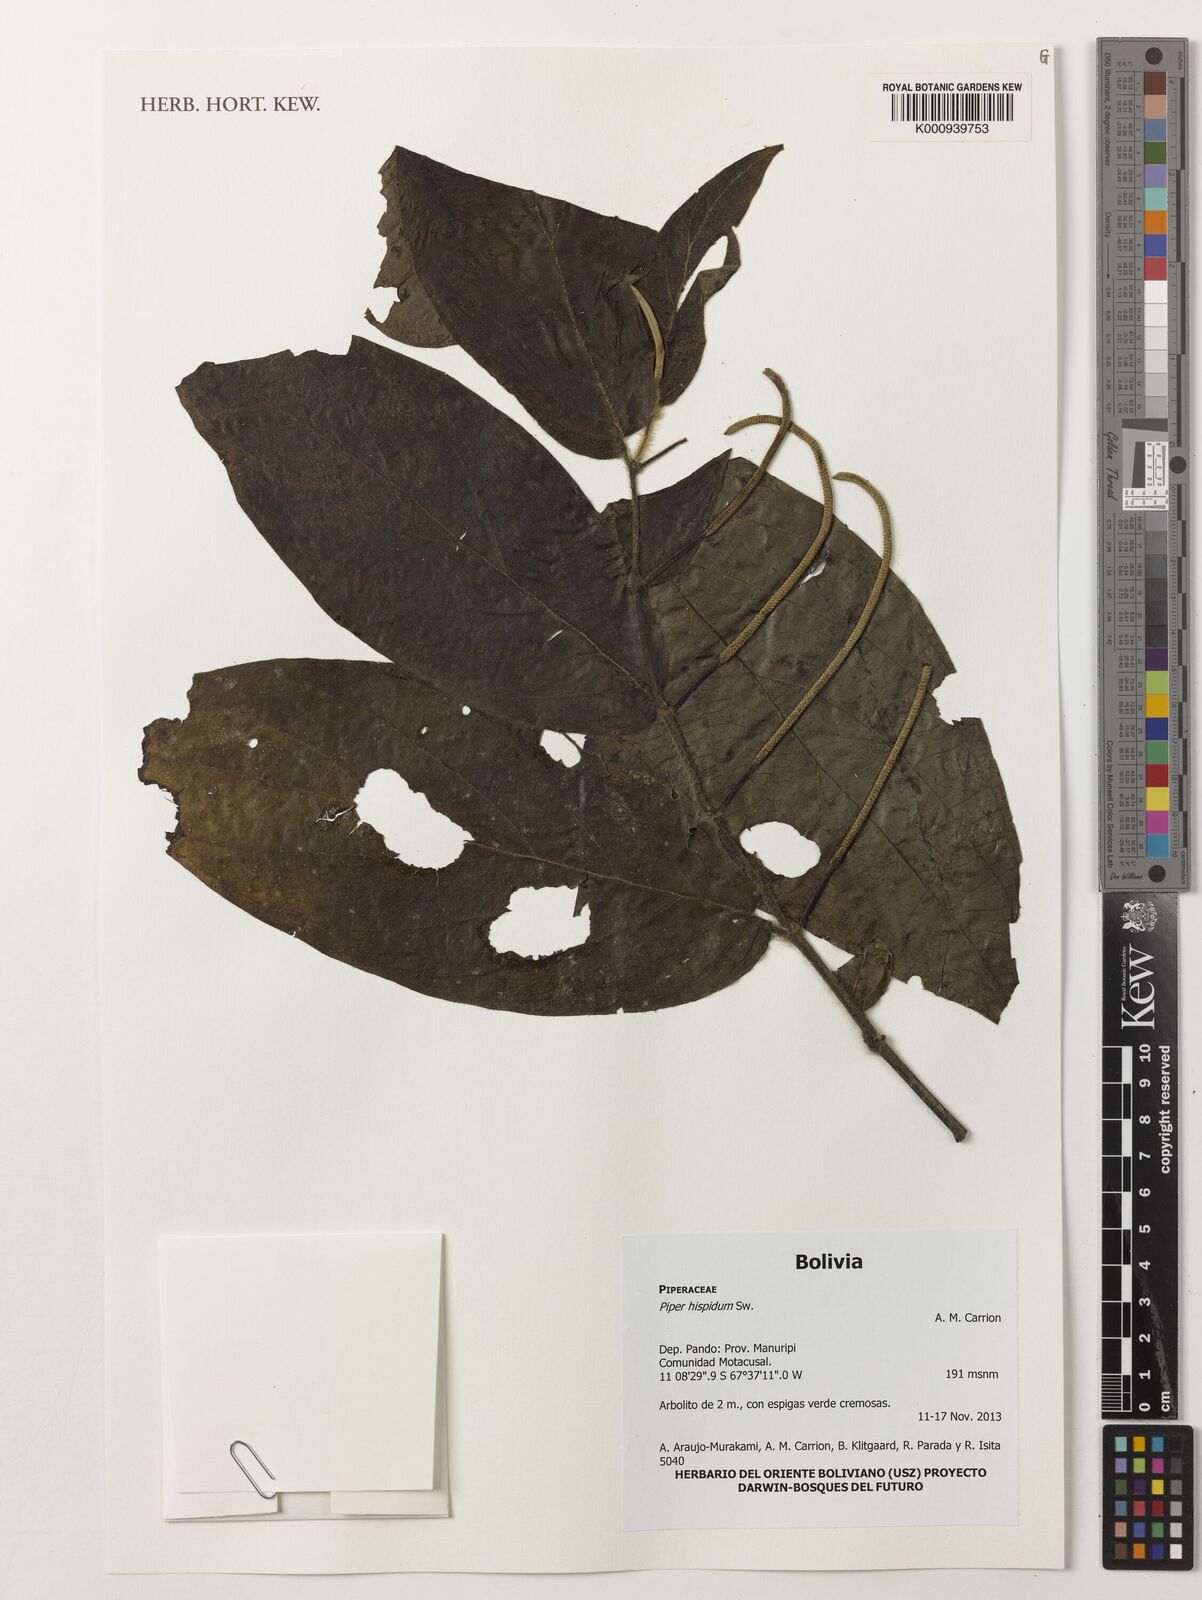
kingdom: Plantae
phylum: Tracheophyta
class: Magnoliopsida
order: Piperales
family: Piperaceae
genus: Piper
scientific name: Piper hispidum
